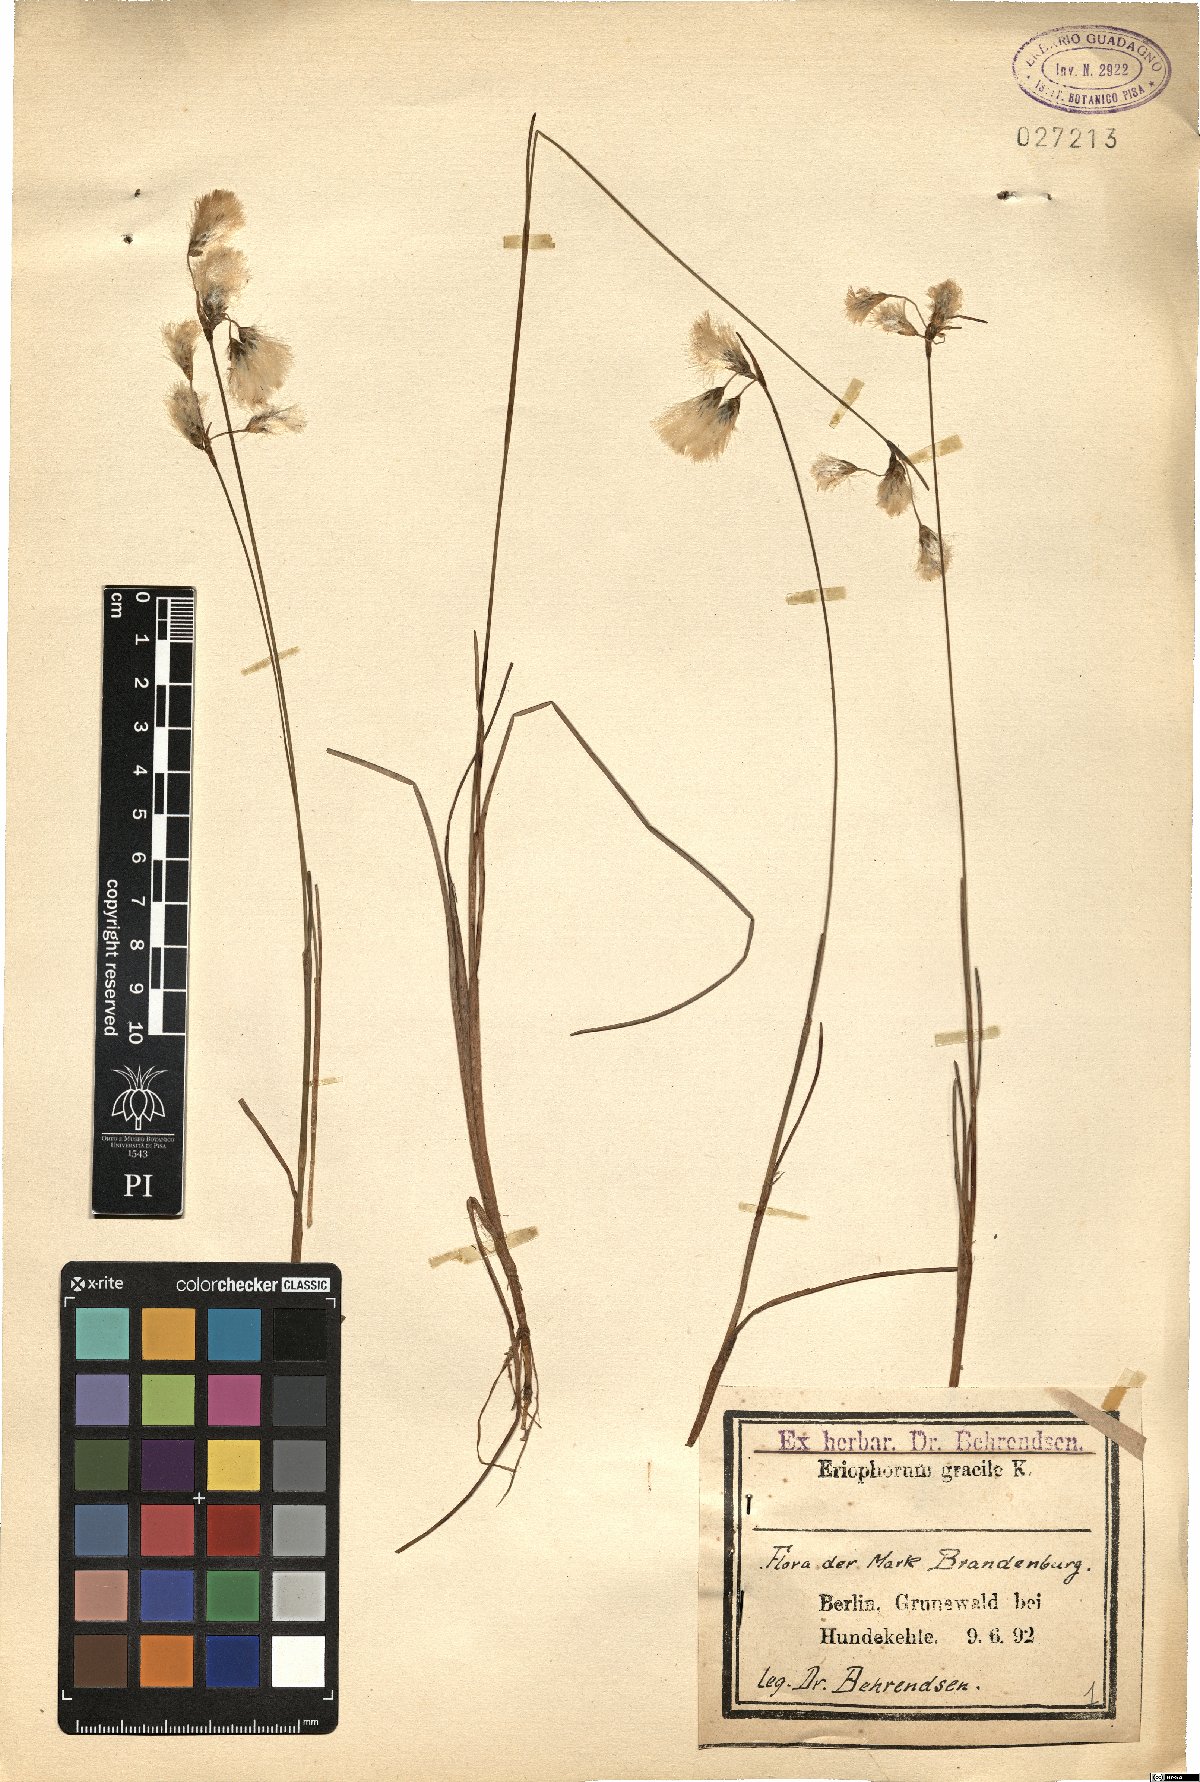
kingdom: Plantae
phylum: Tracheophyta
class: Liliopsida
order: Poales
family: Cyperaceae
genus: Eriophorum
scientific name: Eriophorum gracile
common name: Slender cottongrass
